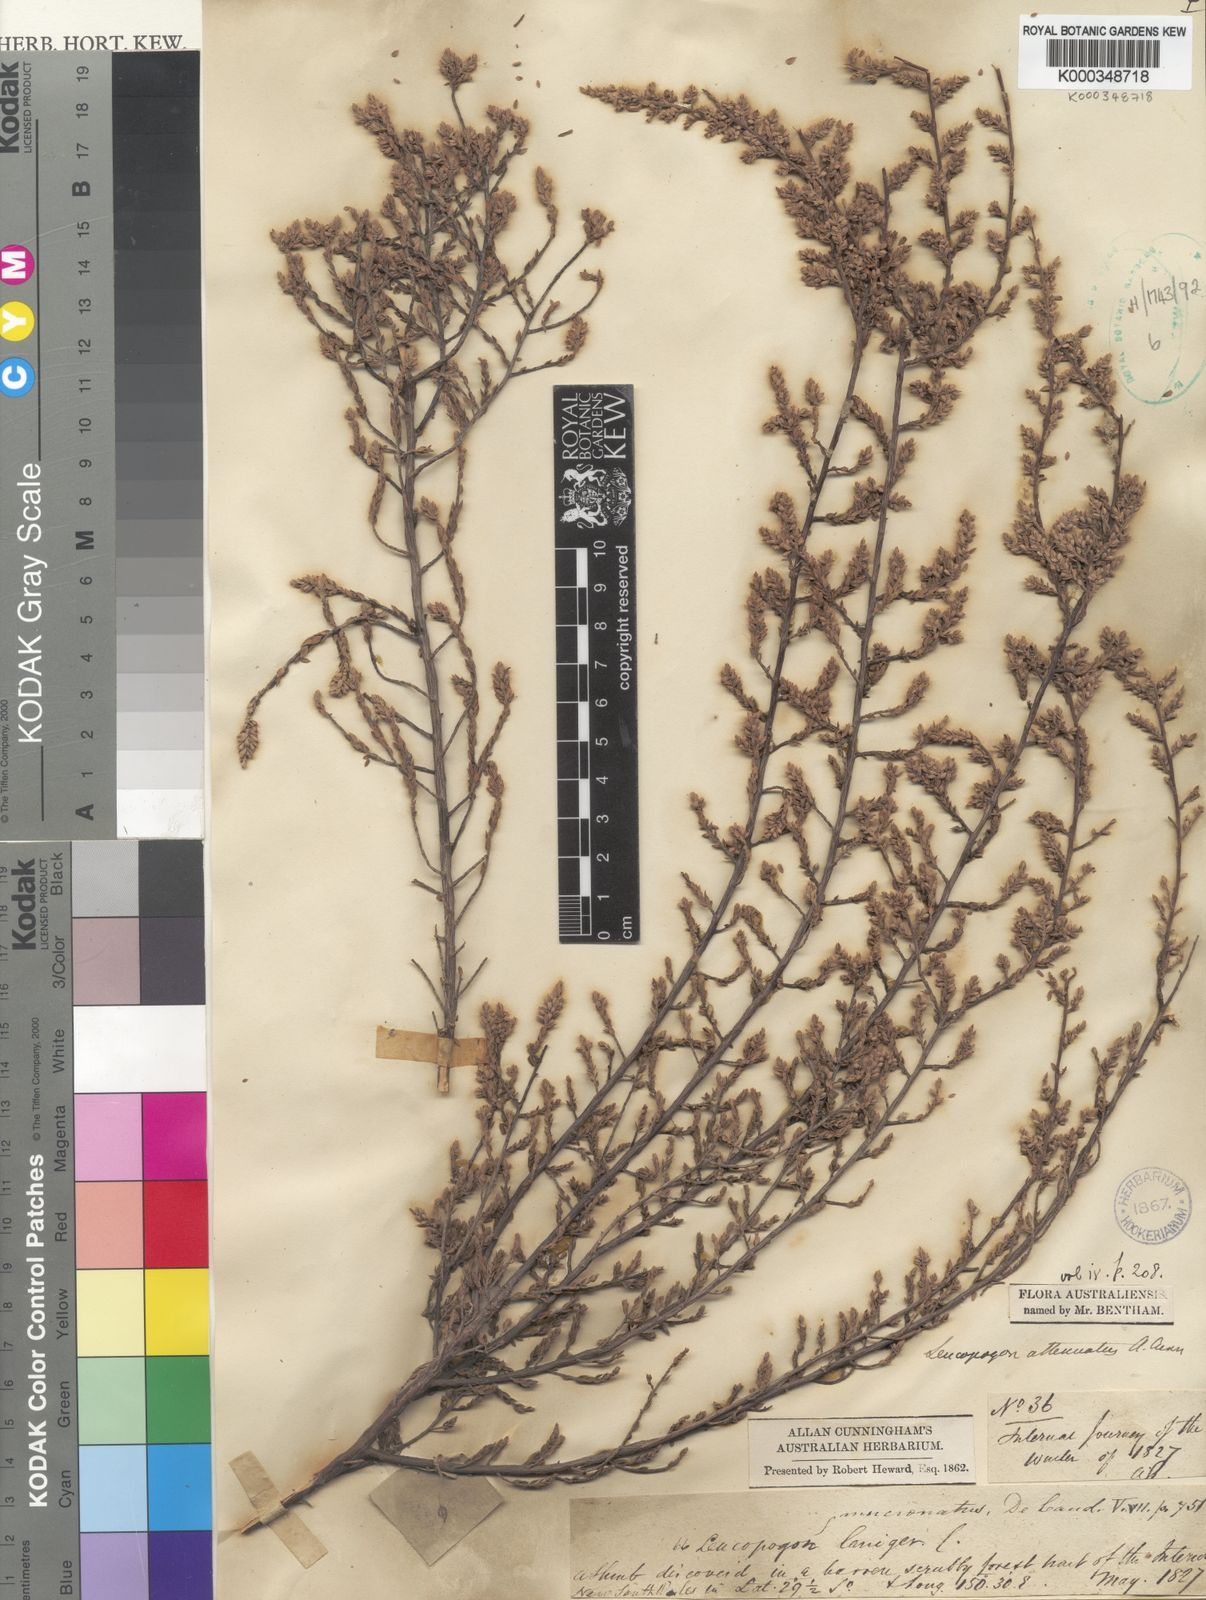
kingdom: Plantae
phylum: Tracheophyta
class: Magnoliopsida
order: Ericales
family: Ericaceae
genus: Styphelia
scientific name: Styphelia attenuata
